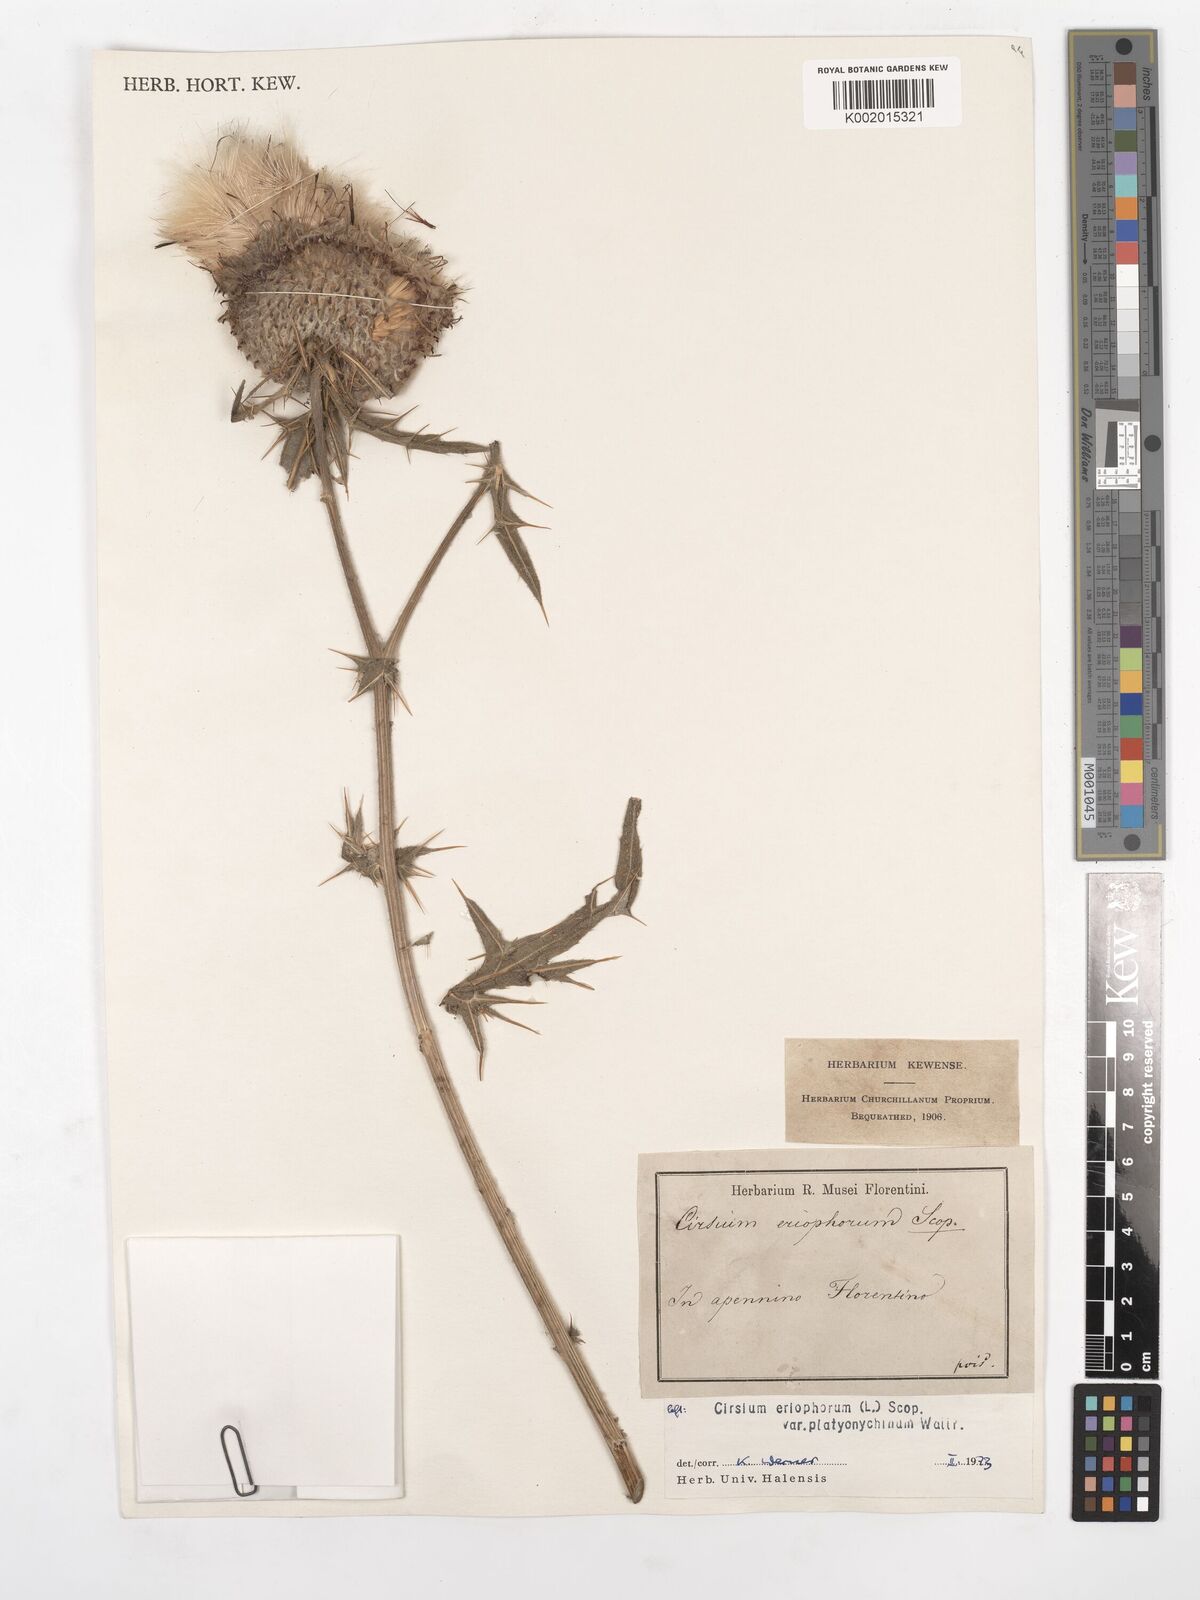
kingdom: Plantae
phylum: Tracheophyta
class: Magnoliopsida
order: Asterales
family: Asteraceae
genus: Lophiolepis
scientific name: Lophiolepis eriophora
